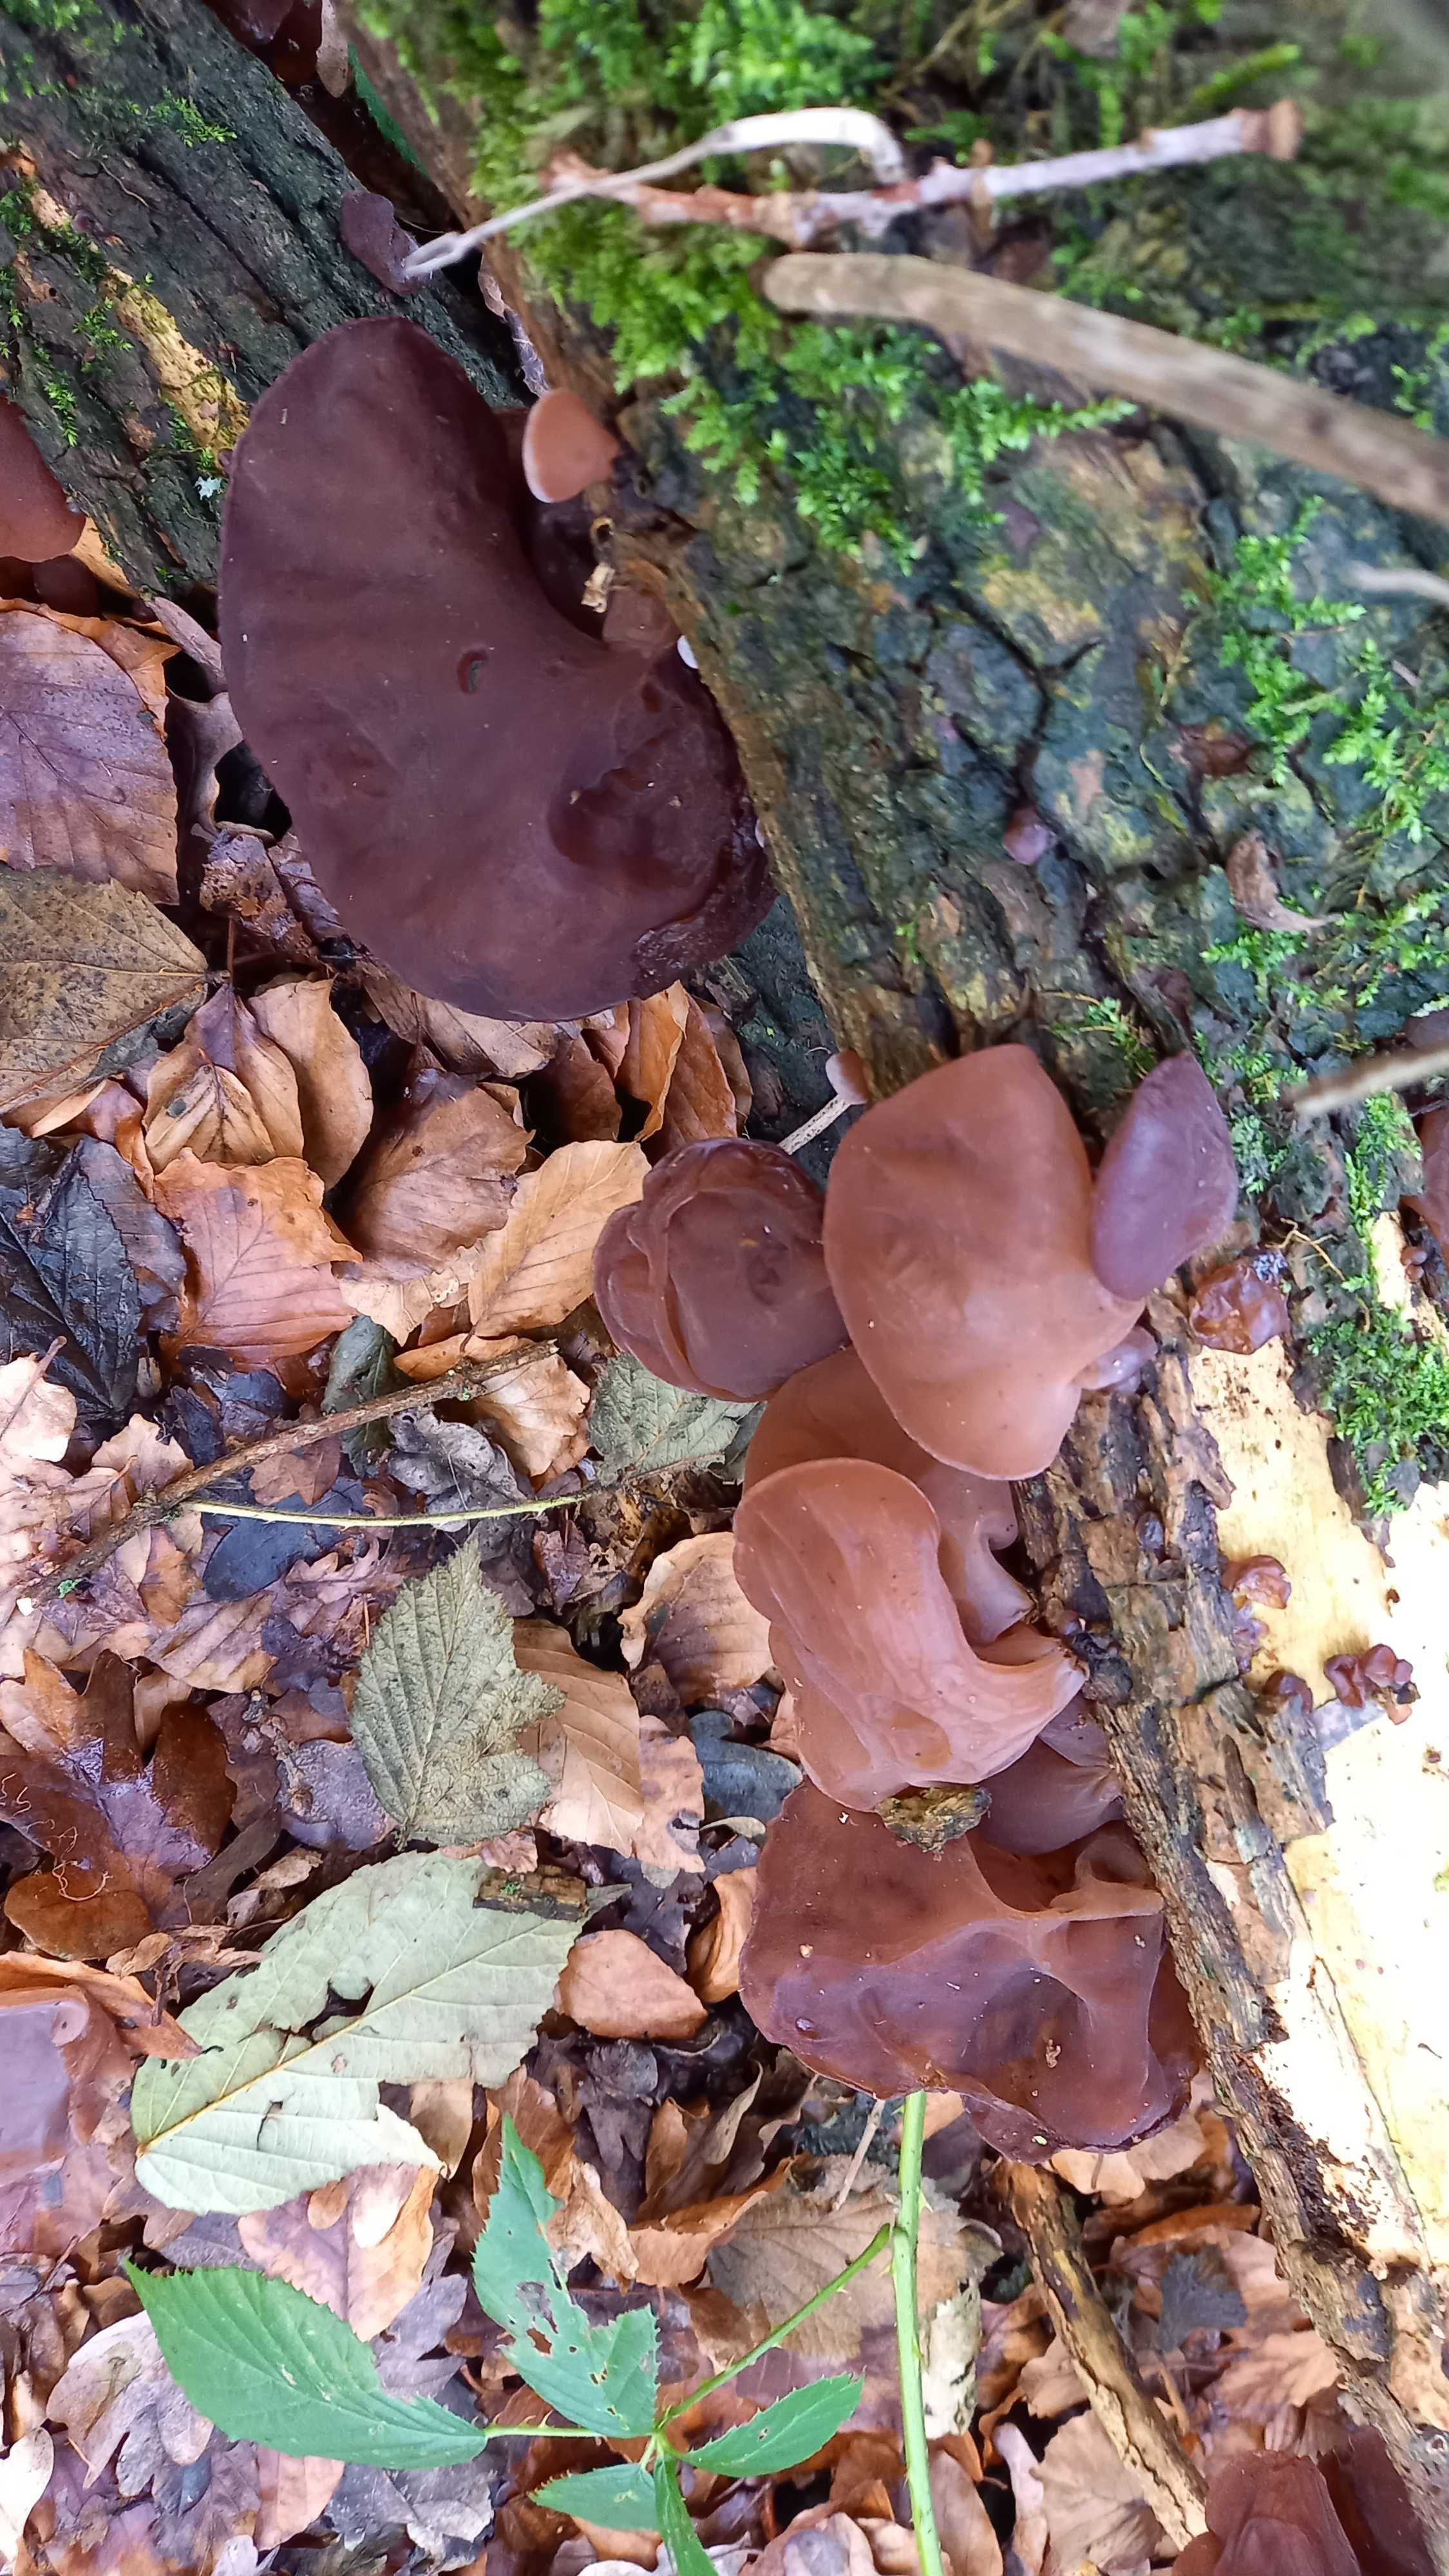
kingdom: Fungi
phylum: Basidiomycota
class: Agaricomycetes
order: Auriculariales
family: Auriculariaceae
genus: Auricularia
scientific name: Auricularia auricula-judae
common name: almindelig judasøre
